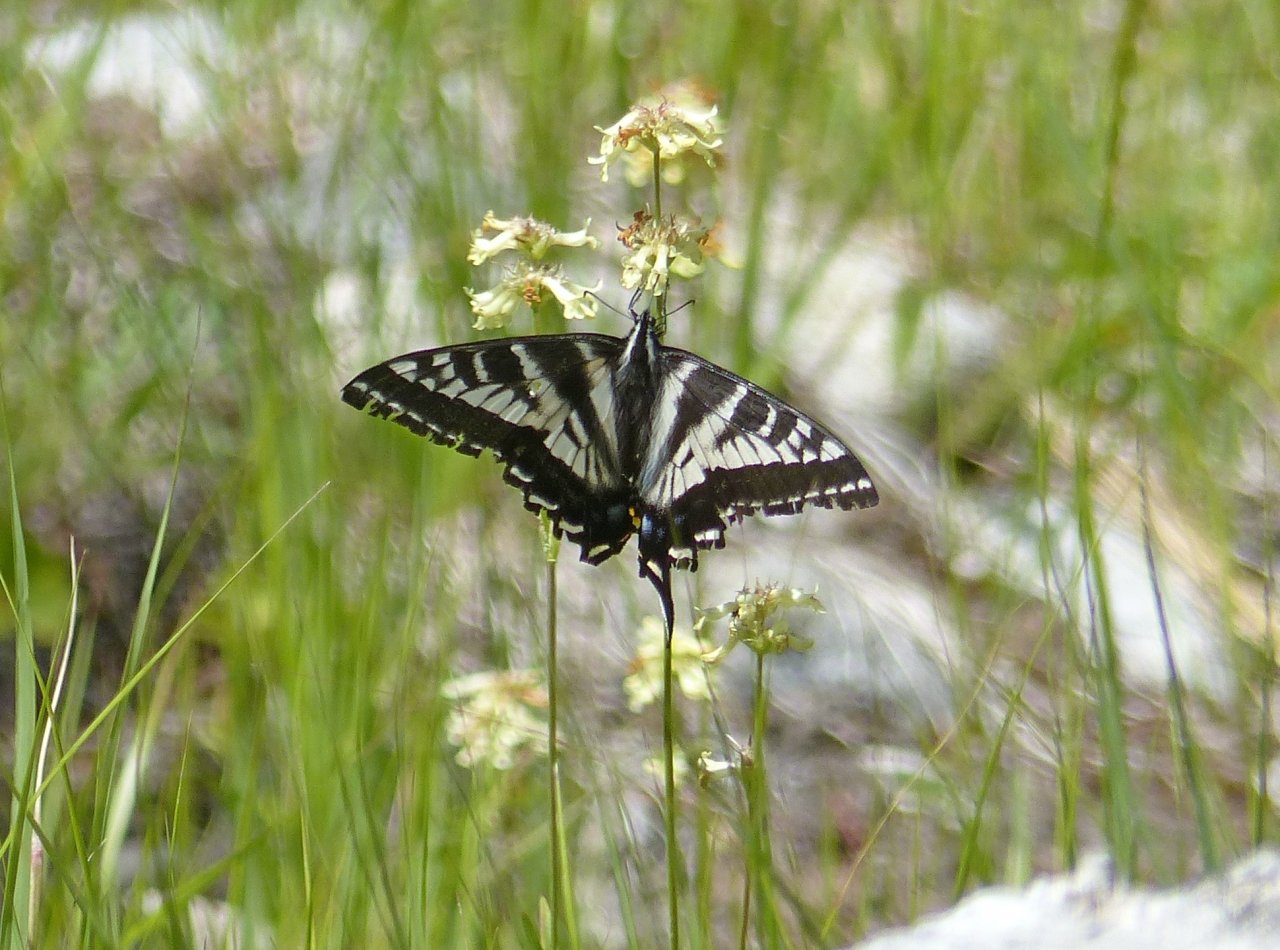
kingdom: Animalia
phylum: Arthropoda
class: Insecta
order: Lepidoptera
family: Papilionidae
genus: Pterourus
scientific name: Pterourus eurymedon
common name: Pale Swallowtail
